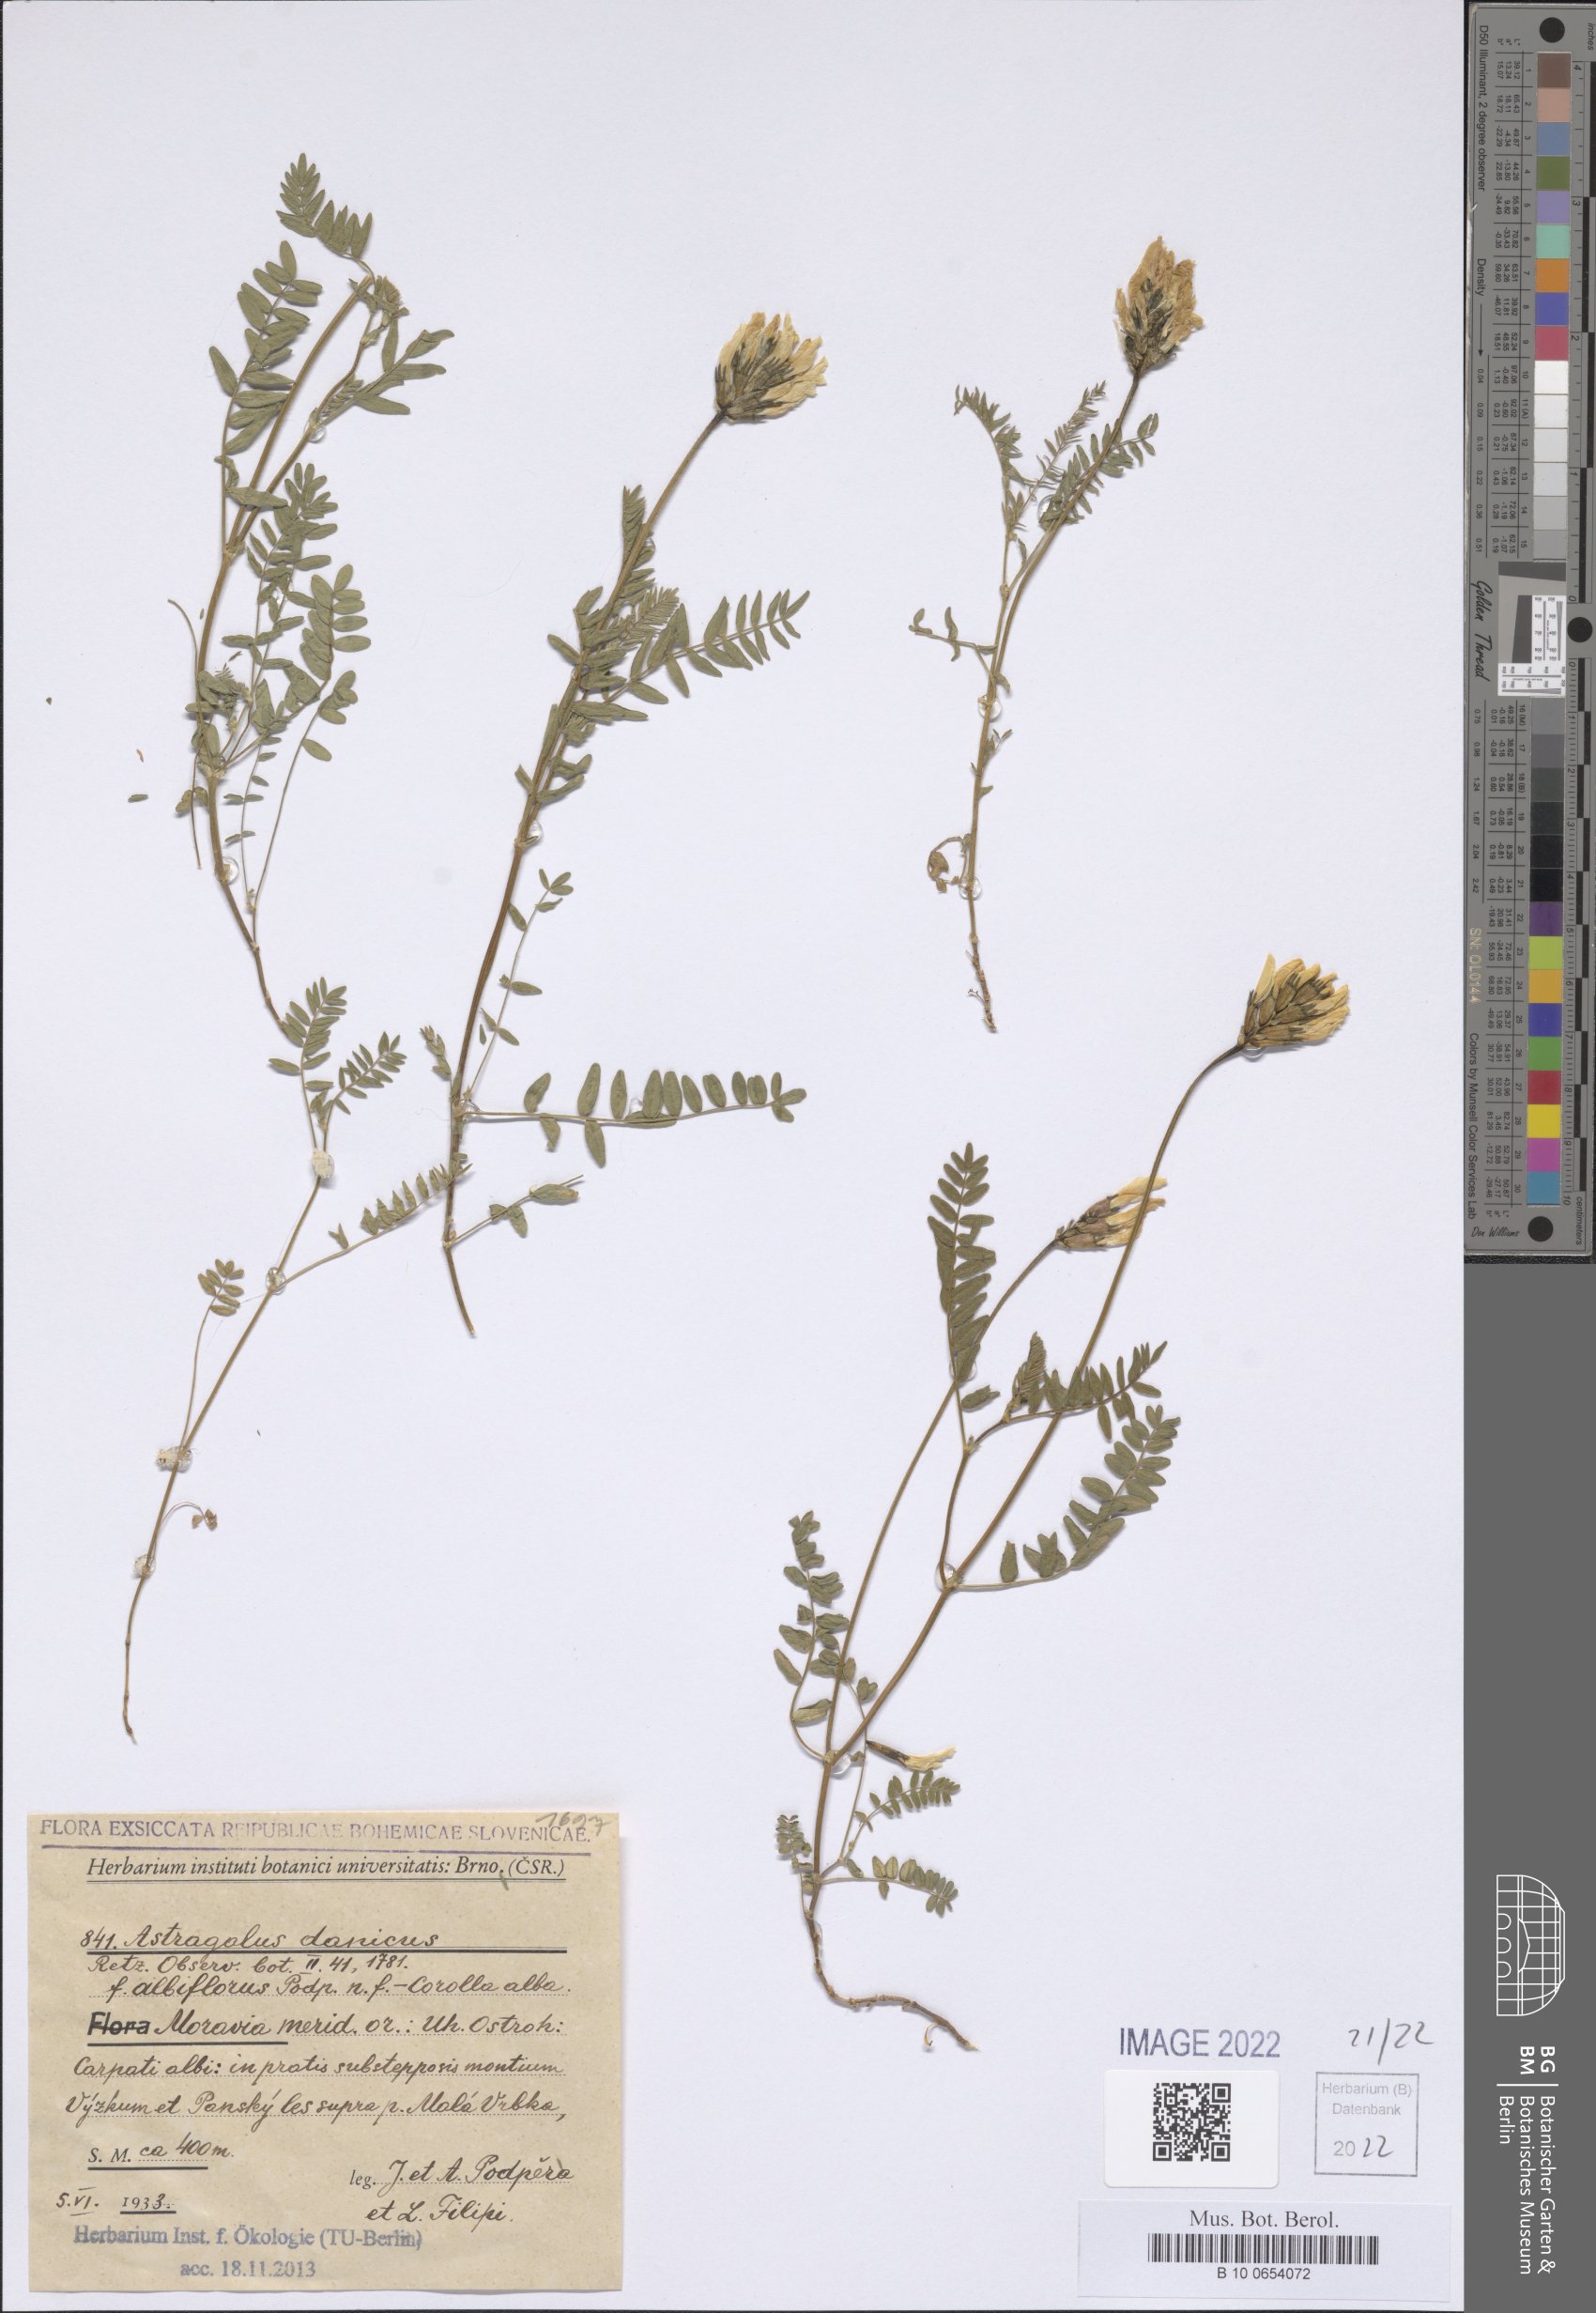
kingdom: Plantae
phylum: Tracheophyta
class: Magnoliopsida
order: Fabales
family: Fabaceae
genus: Astragalus
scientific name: Astragalus danicus
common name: Purple milk-vetch
